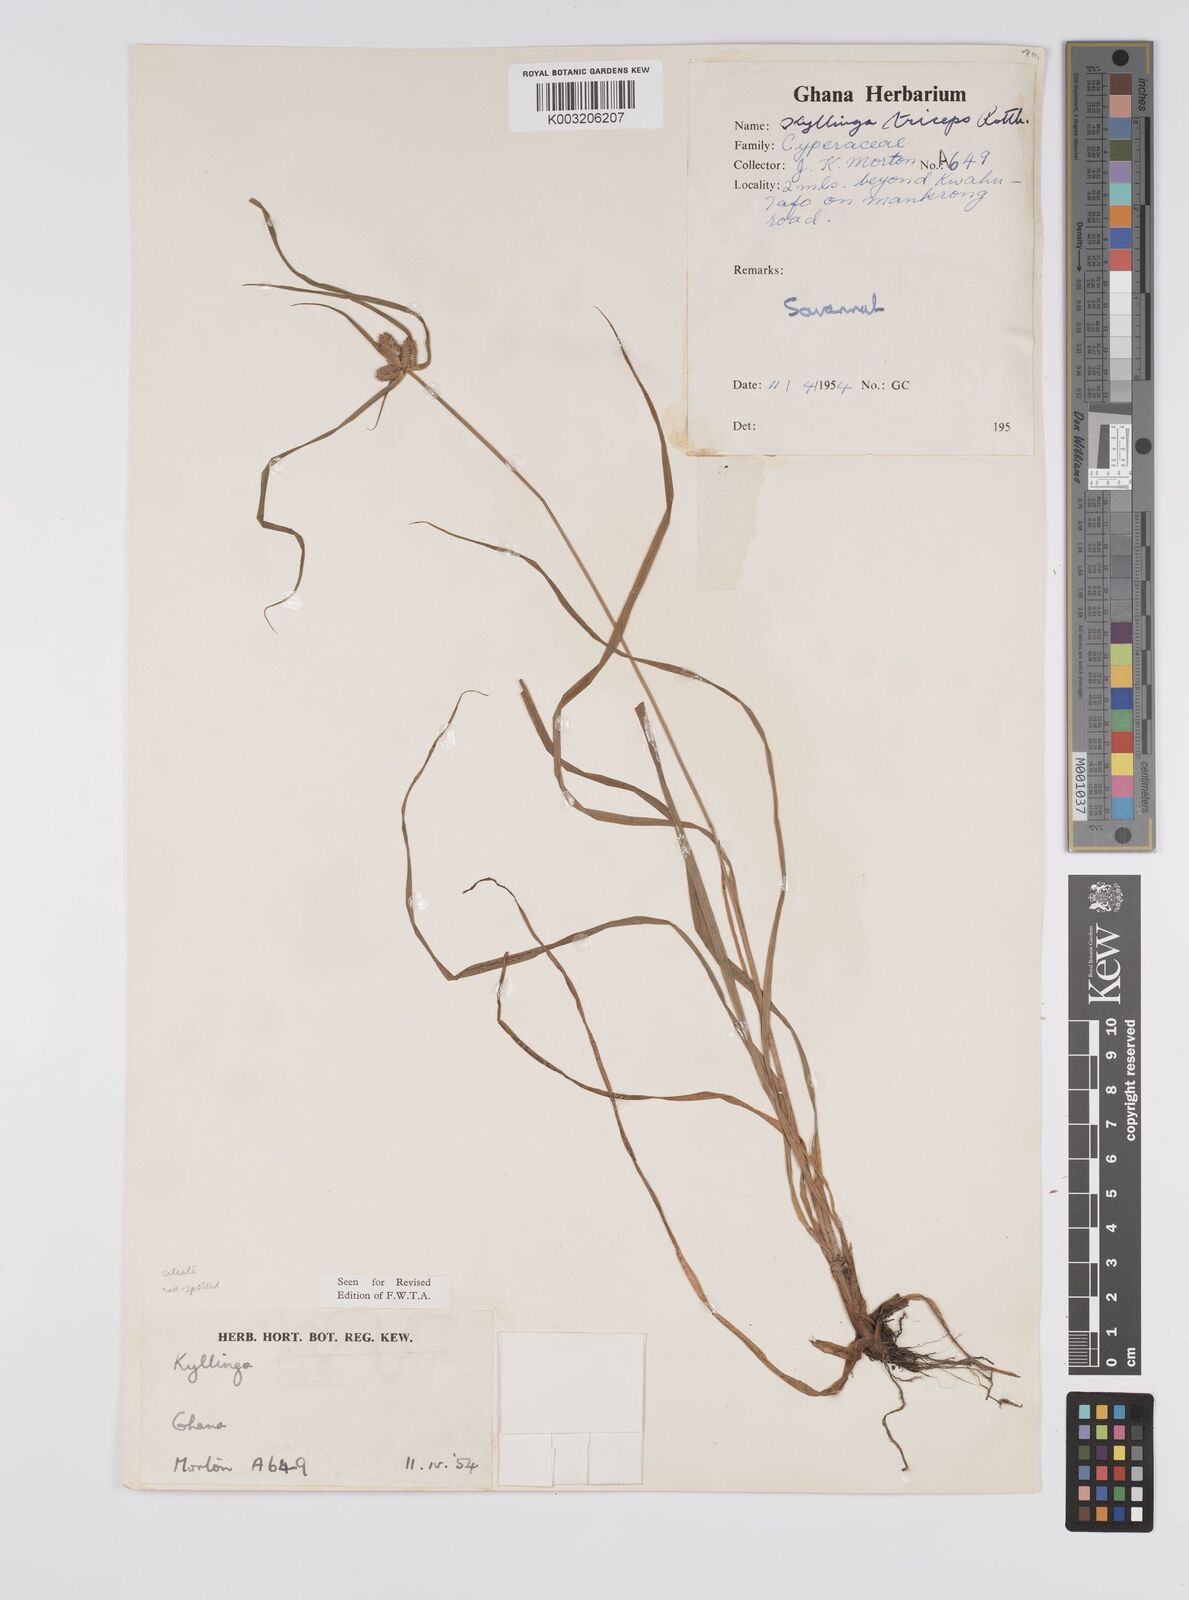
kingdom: Plantae
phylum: Tracheophyta
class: Liliopsida
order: Poales
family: Cyperaceae
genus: Cyperus
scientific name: Cyperus
